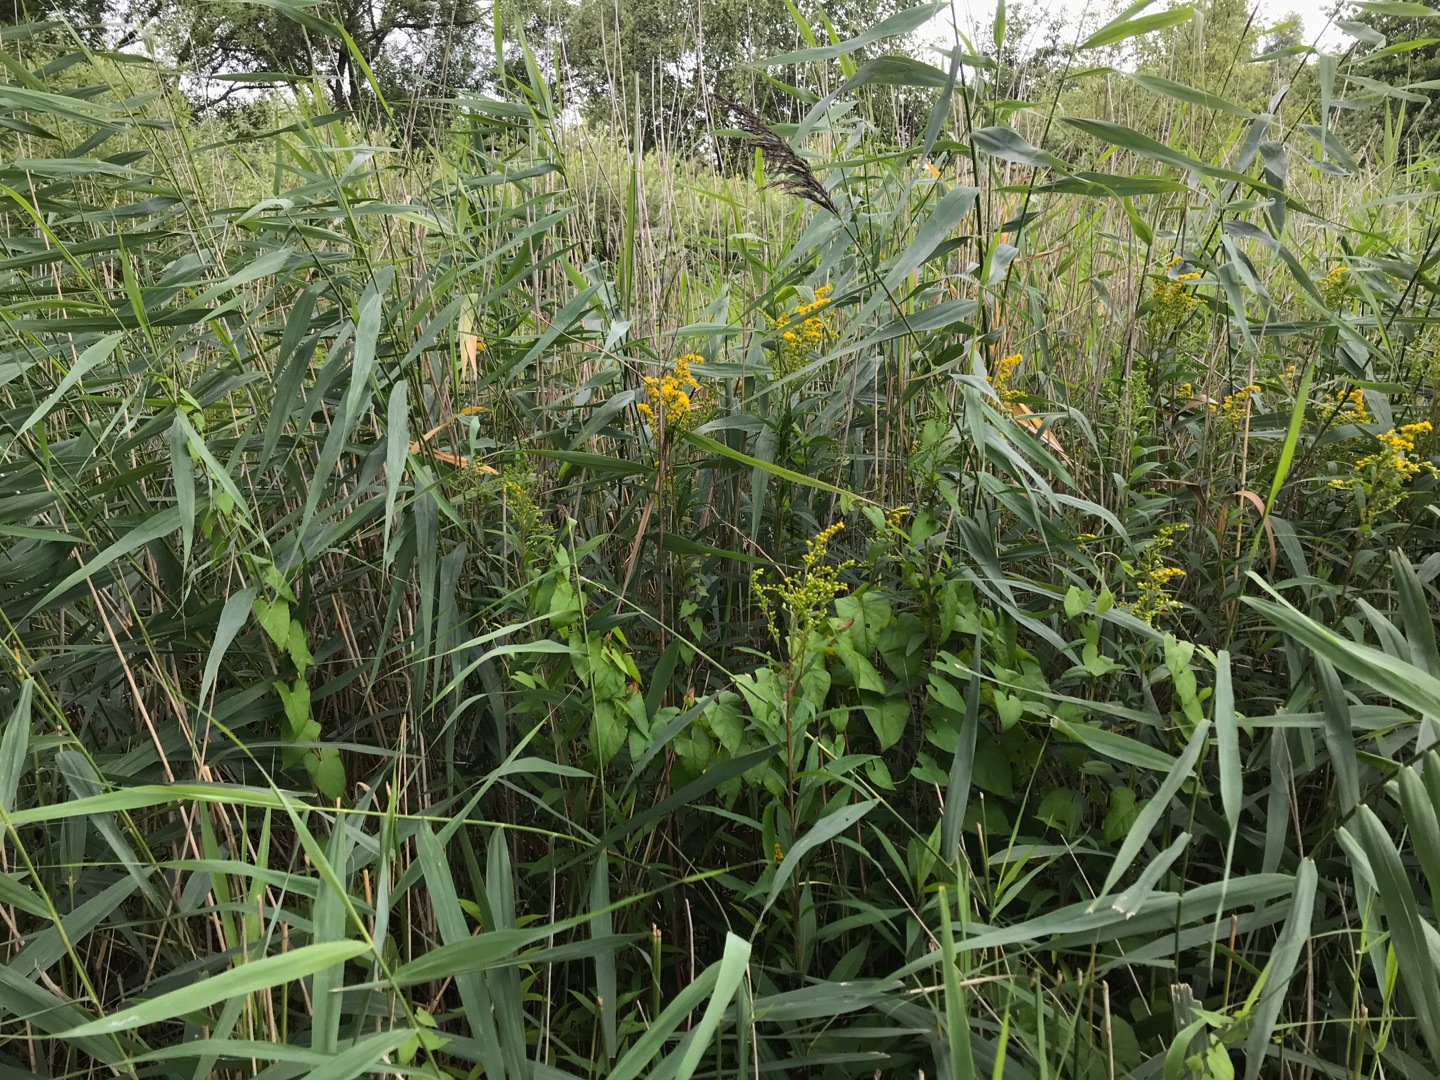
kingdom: Plantae
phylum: Tracheophyta
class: Magnoliopsida
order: Asterales
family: Asteraceae
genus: Solidago
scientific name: Solidago gigantea
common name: Sildig gyldenris
